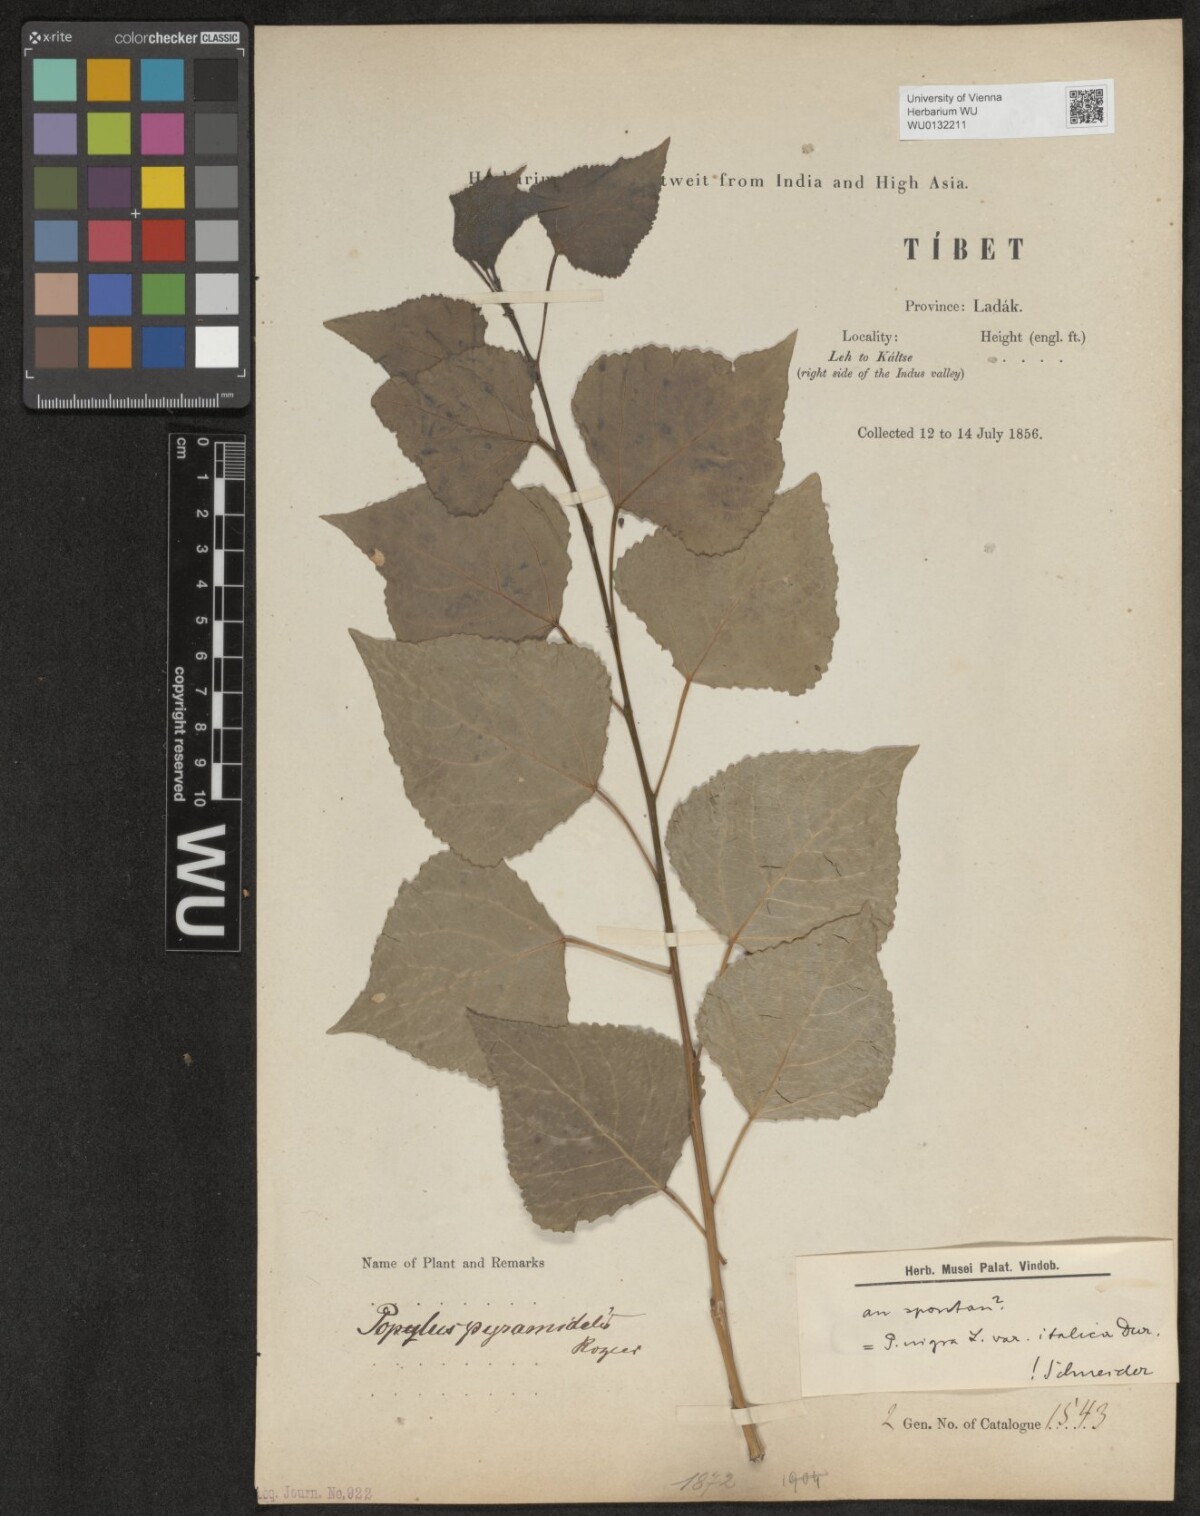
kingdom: Plantae
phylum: Tracheophyta
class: Magnoliopsida
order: Malpighiales
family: Salicaceae
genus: Populus
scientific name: Populus nigra
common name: Black poplar
